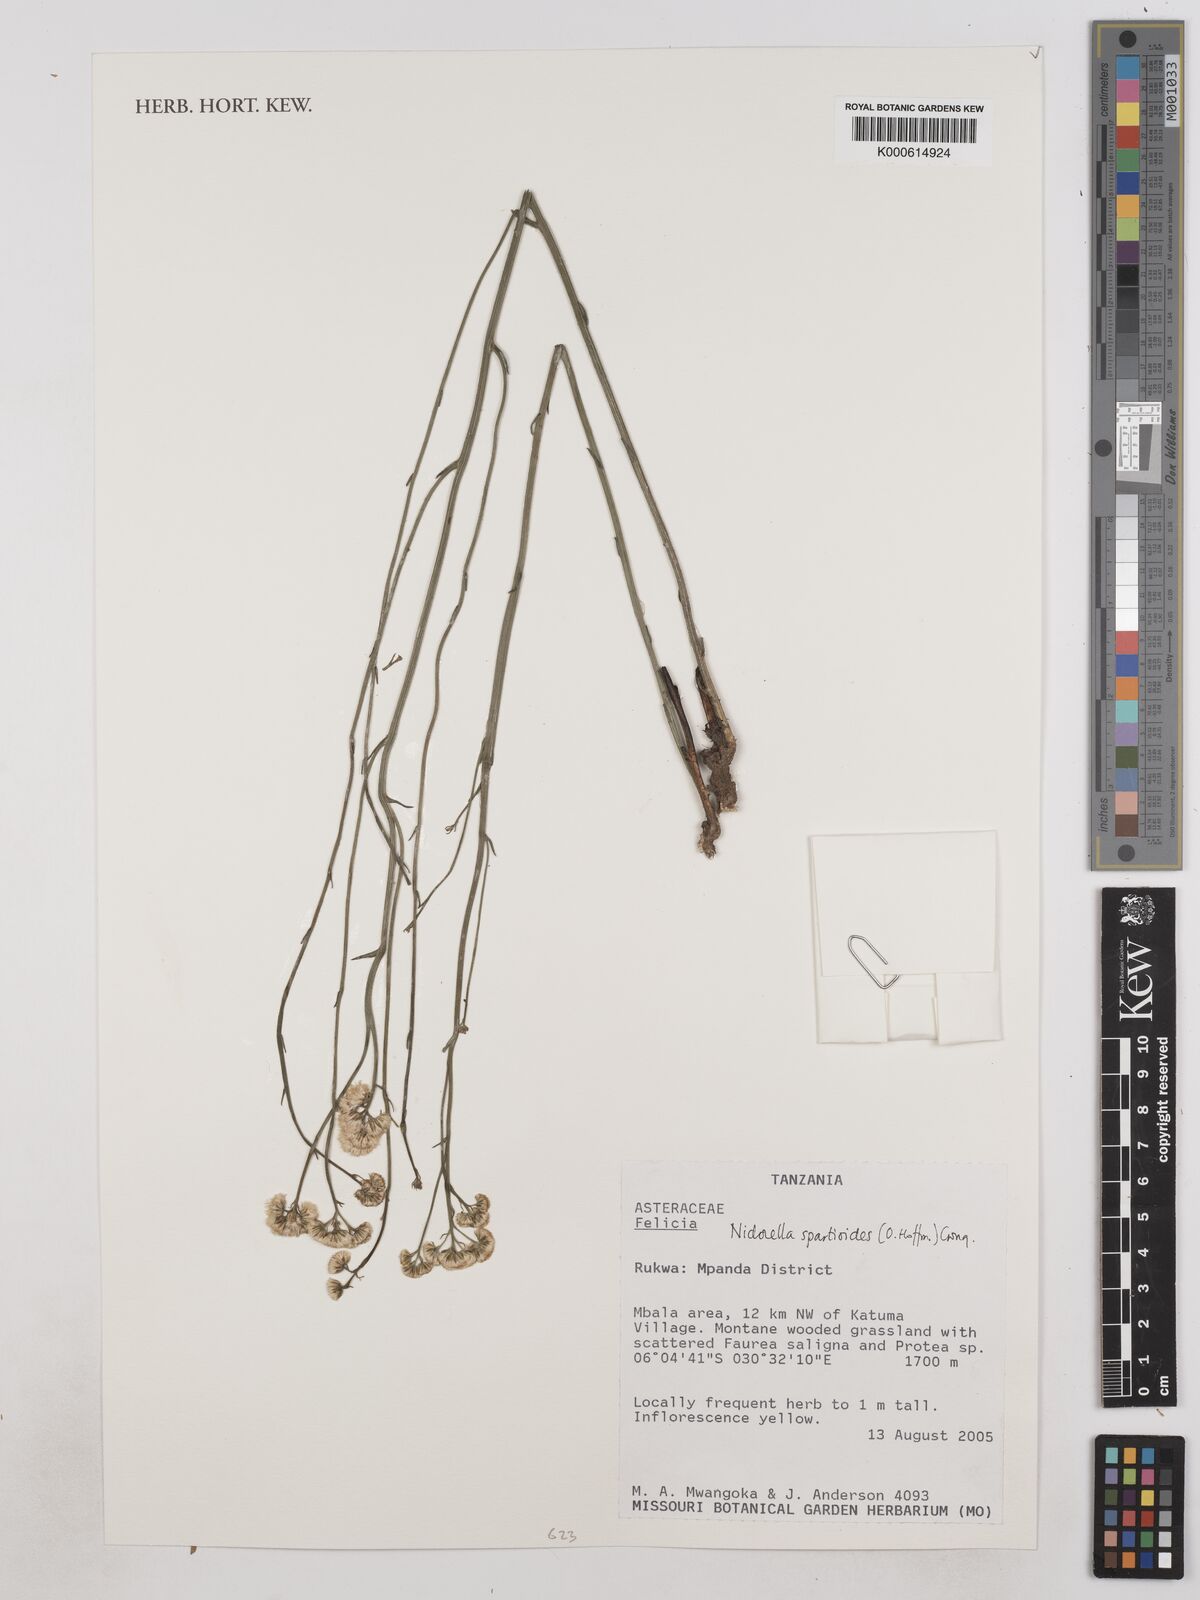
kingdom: Plantae
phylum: Tracheophyta
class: Magnoliopsida
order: Asterales
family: Asteraceae
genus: Nidorella
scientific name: Nidorella spartioides
